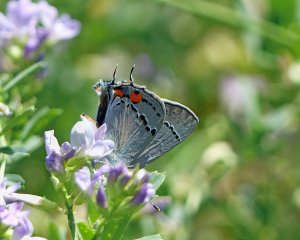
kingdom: Animalia
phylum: Arthropoda
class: Insecta
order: Lepidoptera
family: Lycaenidae
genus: Strymon
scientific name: Strymon melinus
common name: Gray Hairstreak
